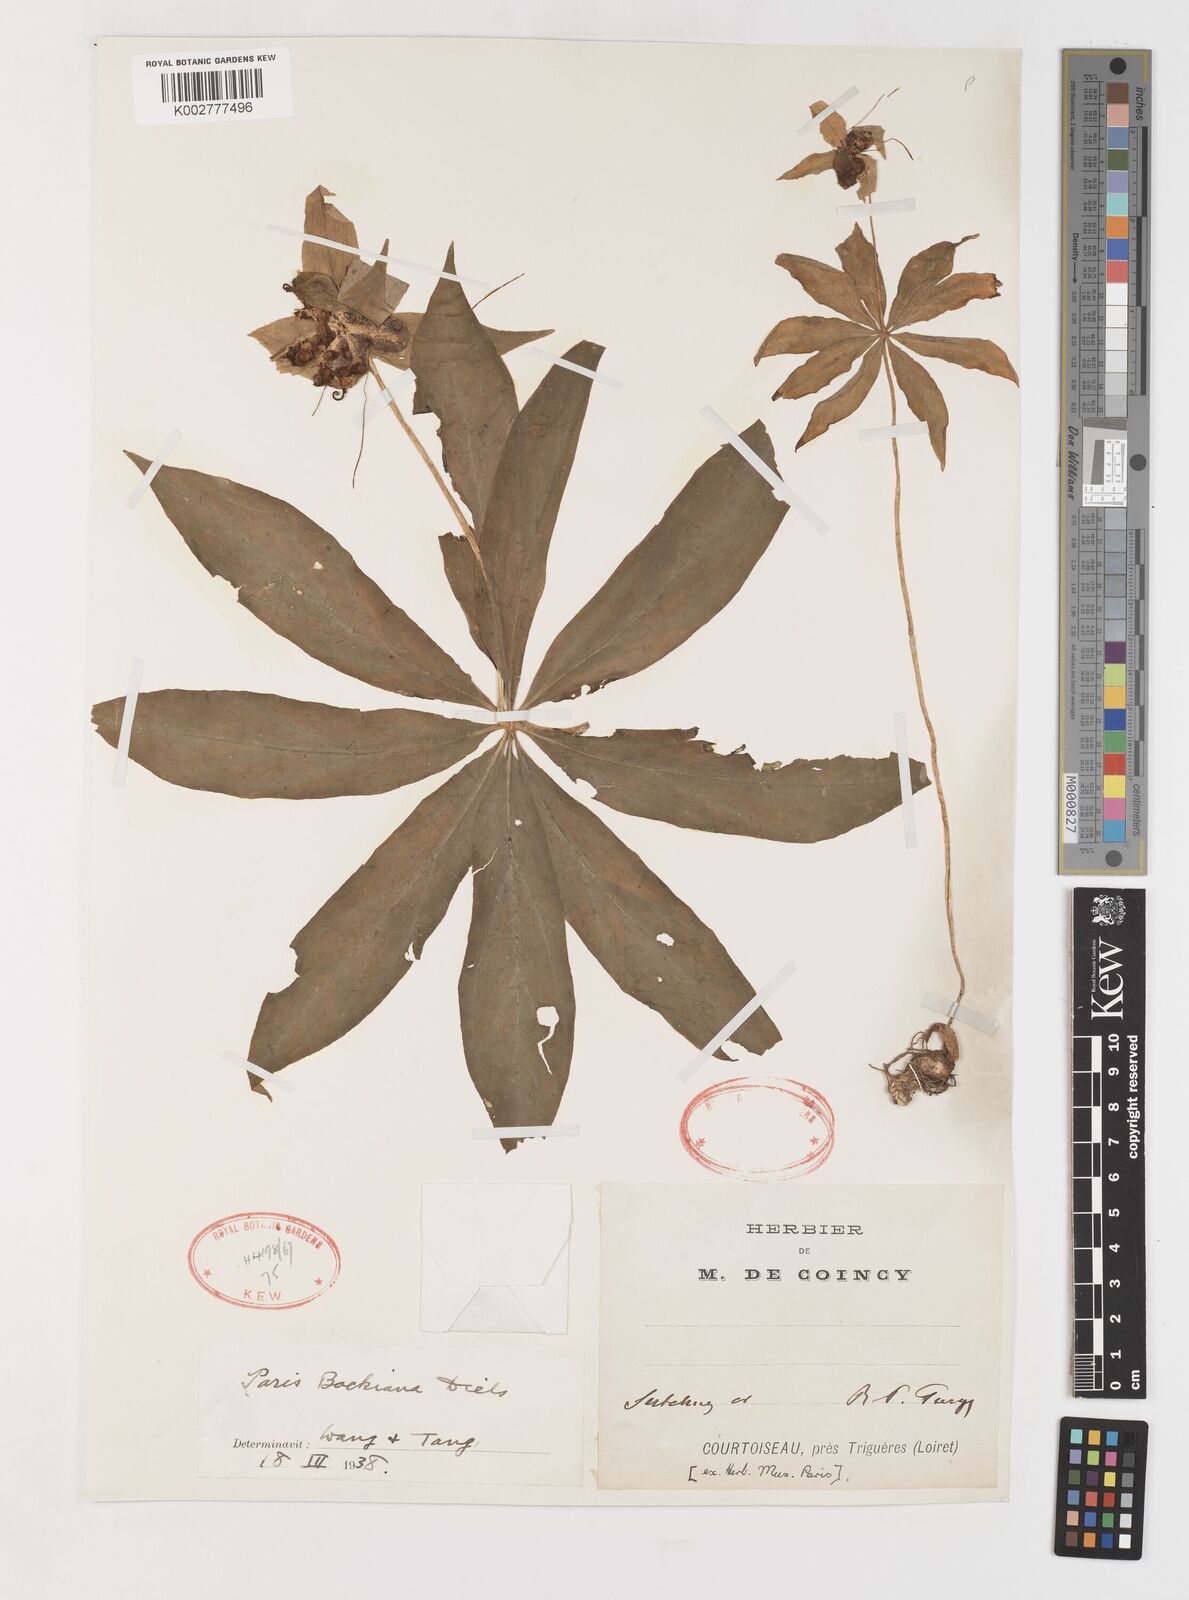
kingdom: Plantae
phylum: Tracheophyta
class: Liliopsida
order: Liliales
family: Melanthiaceae
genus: Paris
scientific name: Paris delavayi
